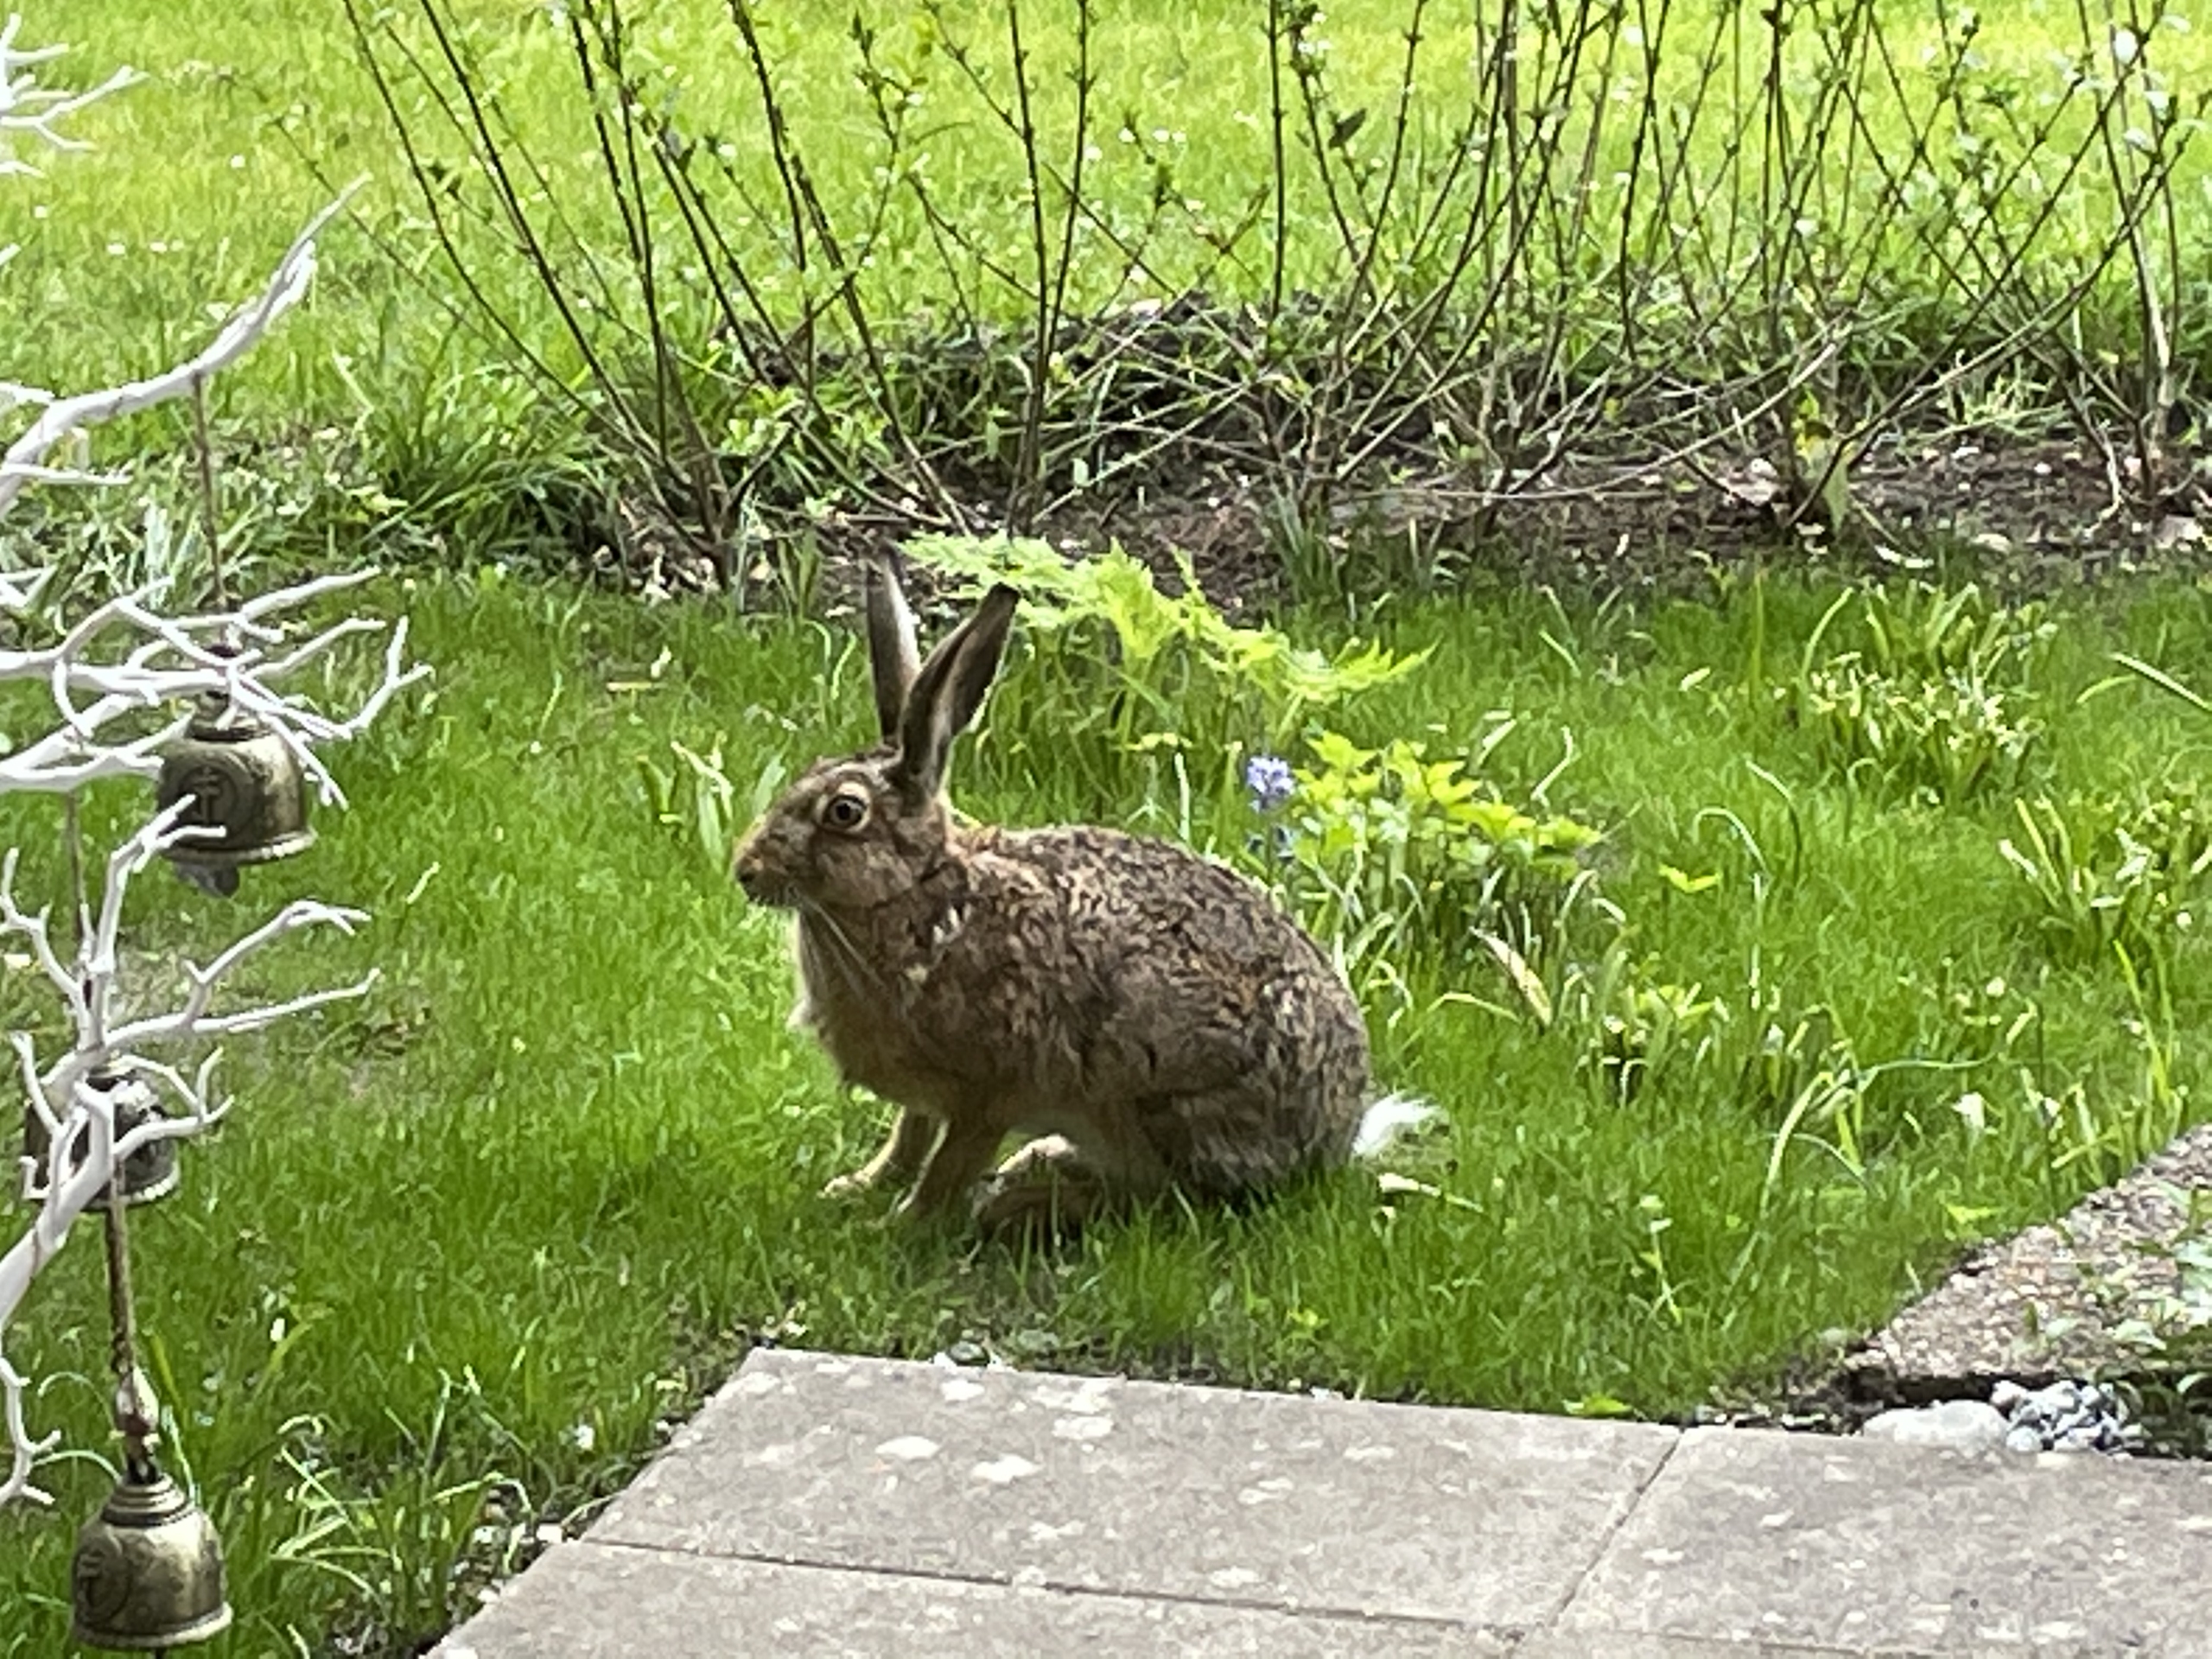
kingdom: Animalia
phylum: Chordata
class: Mammalia
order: Lagomorpha
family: Leporidae
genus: Lepus
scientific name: Lepus europaeus
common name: Hare
